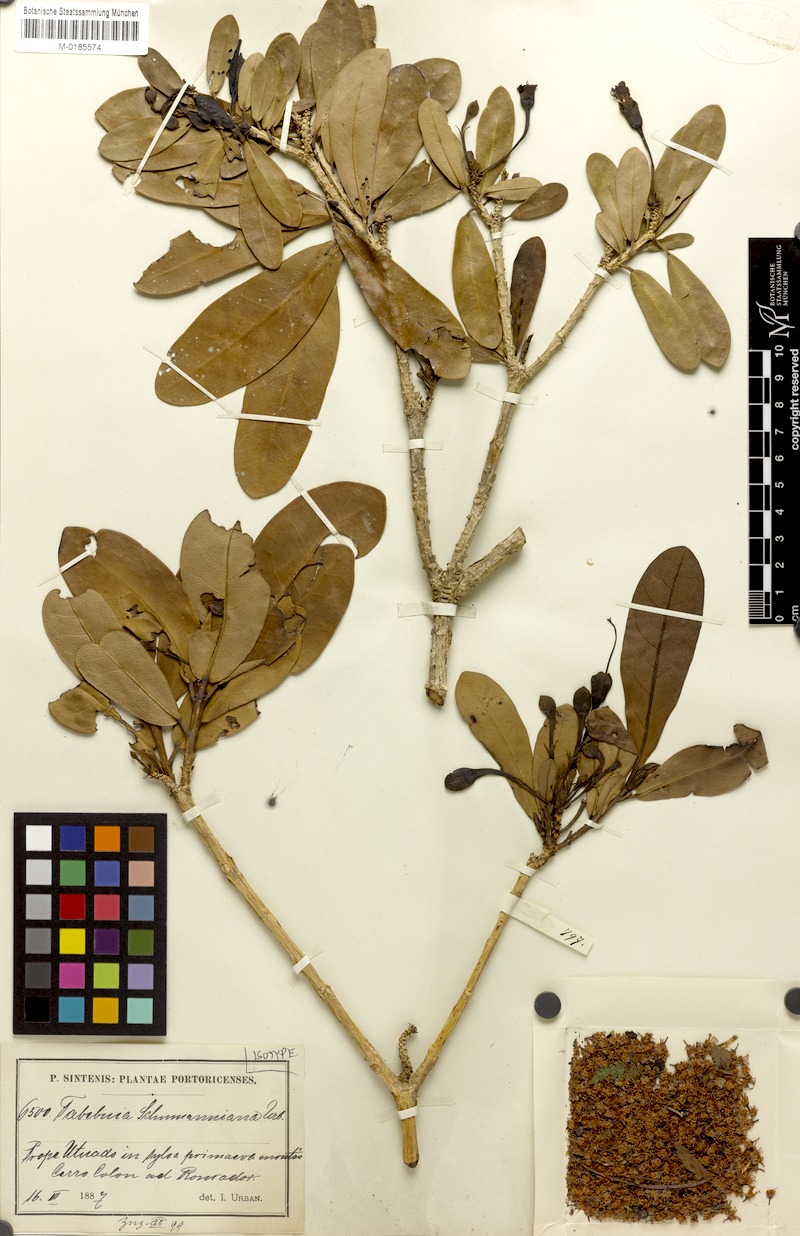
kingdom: Plantae
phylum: Tracheophyta
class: Magnoliopsida
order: Lamiales
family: Bignoniaceae
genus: Tabebuia
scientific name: Tabebuia schumanniana
